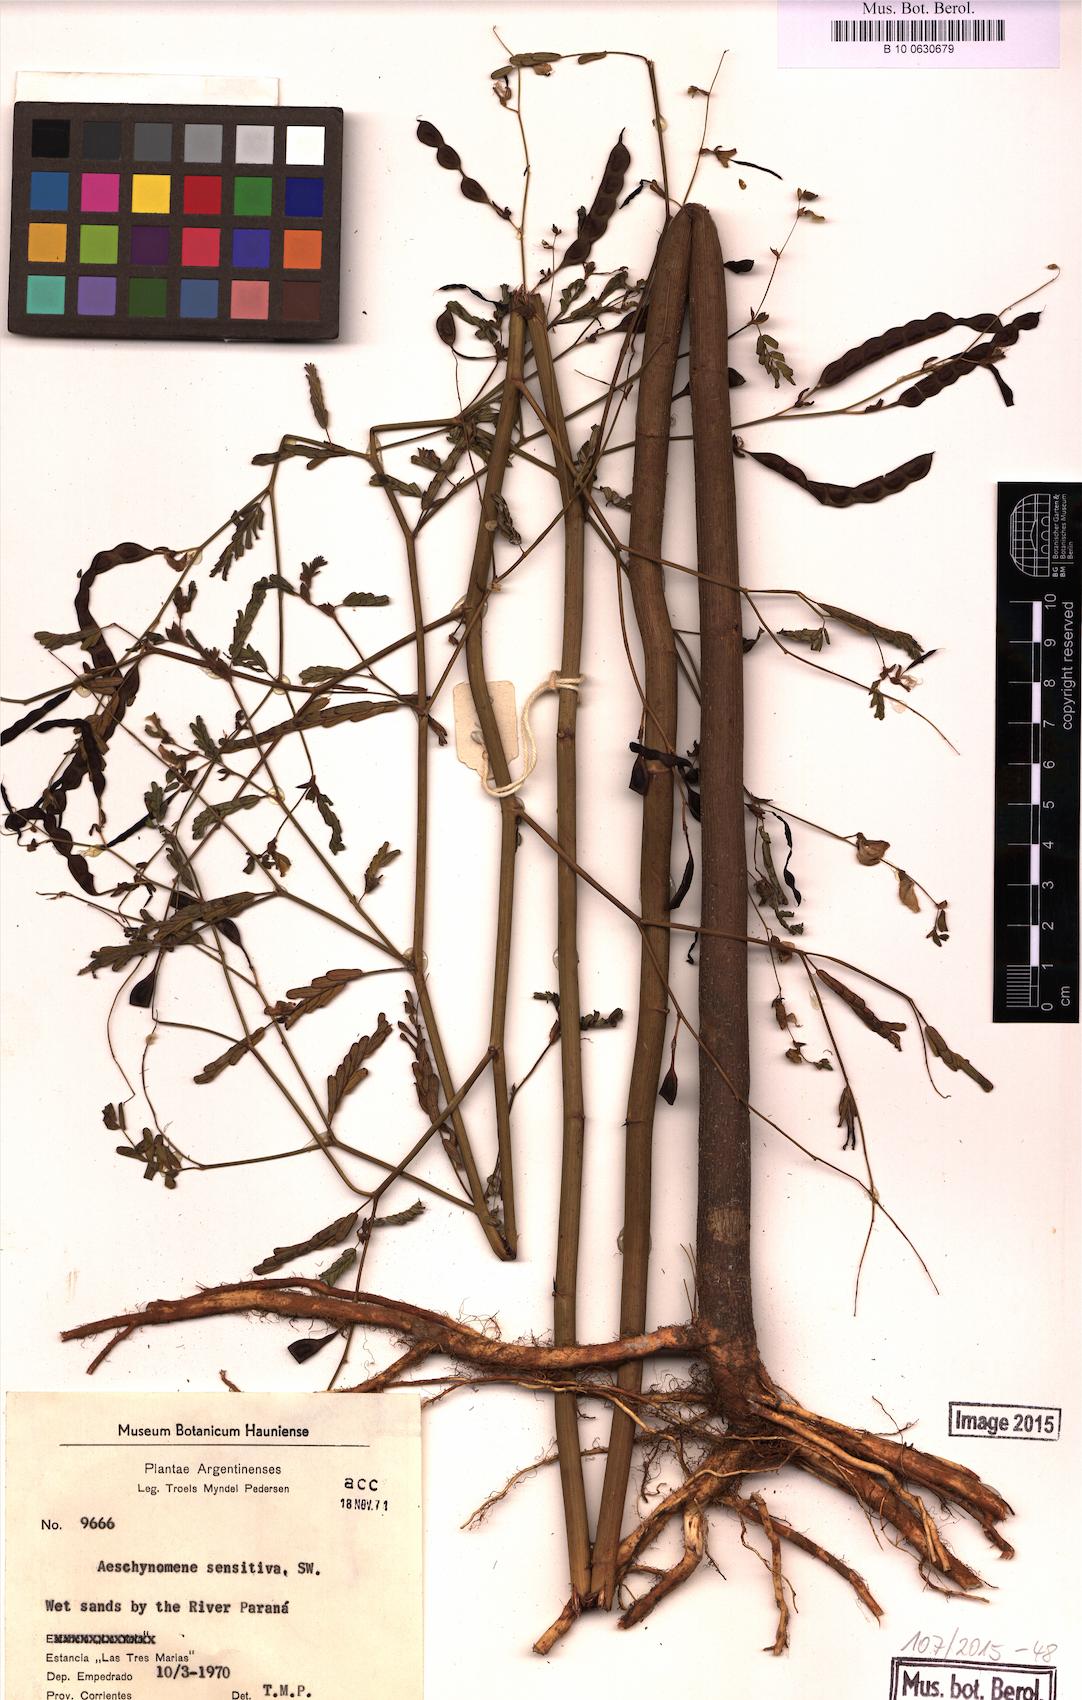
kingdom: Plantae
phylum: Tracheophyta
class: Magnoliopsida
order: Fabales
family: Fabaceae
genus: Aeschynomene
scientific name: Aeschynomene sensitiva
